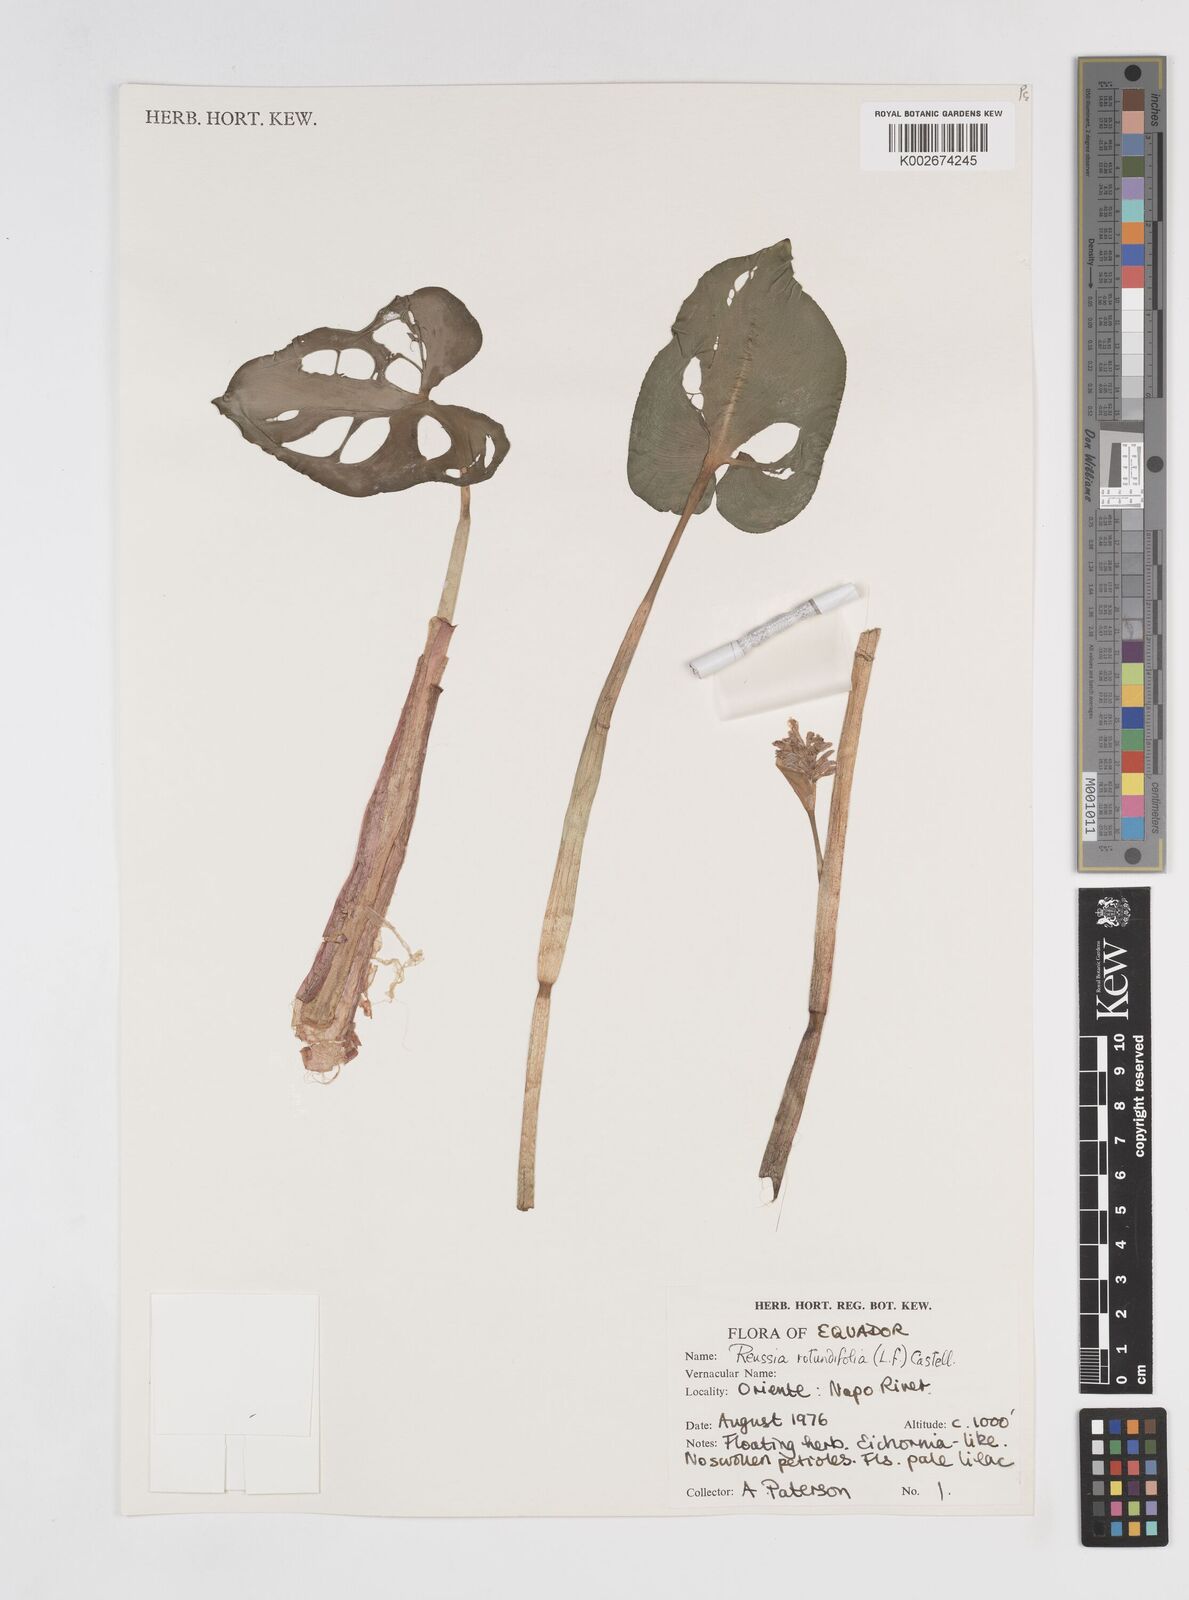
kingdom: Plantae
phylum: Tracheophyta
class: Liliopsida
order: Commelinales
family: Pontederiaceae
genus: Pontederia
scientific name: Pontederia rotundifolia
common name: Tropical pickerel-weed
